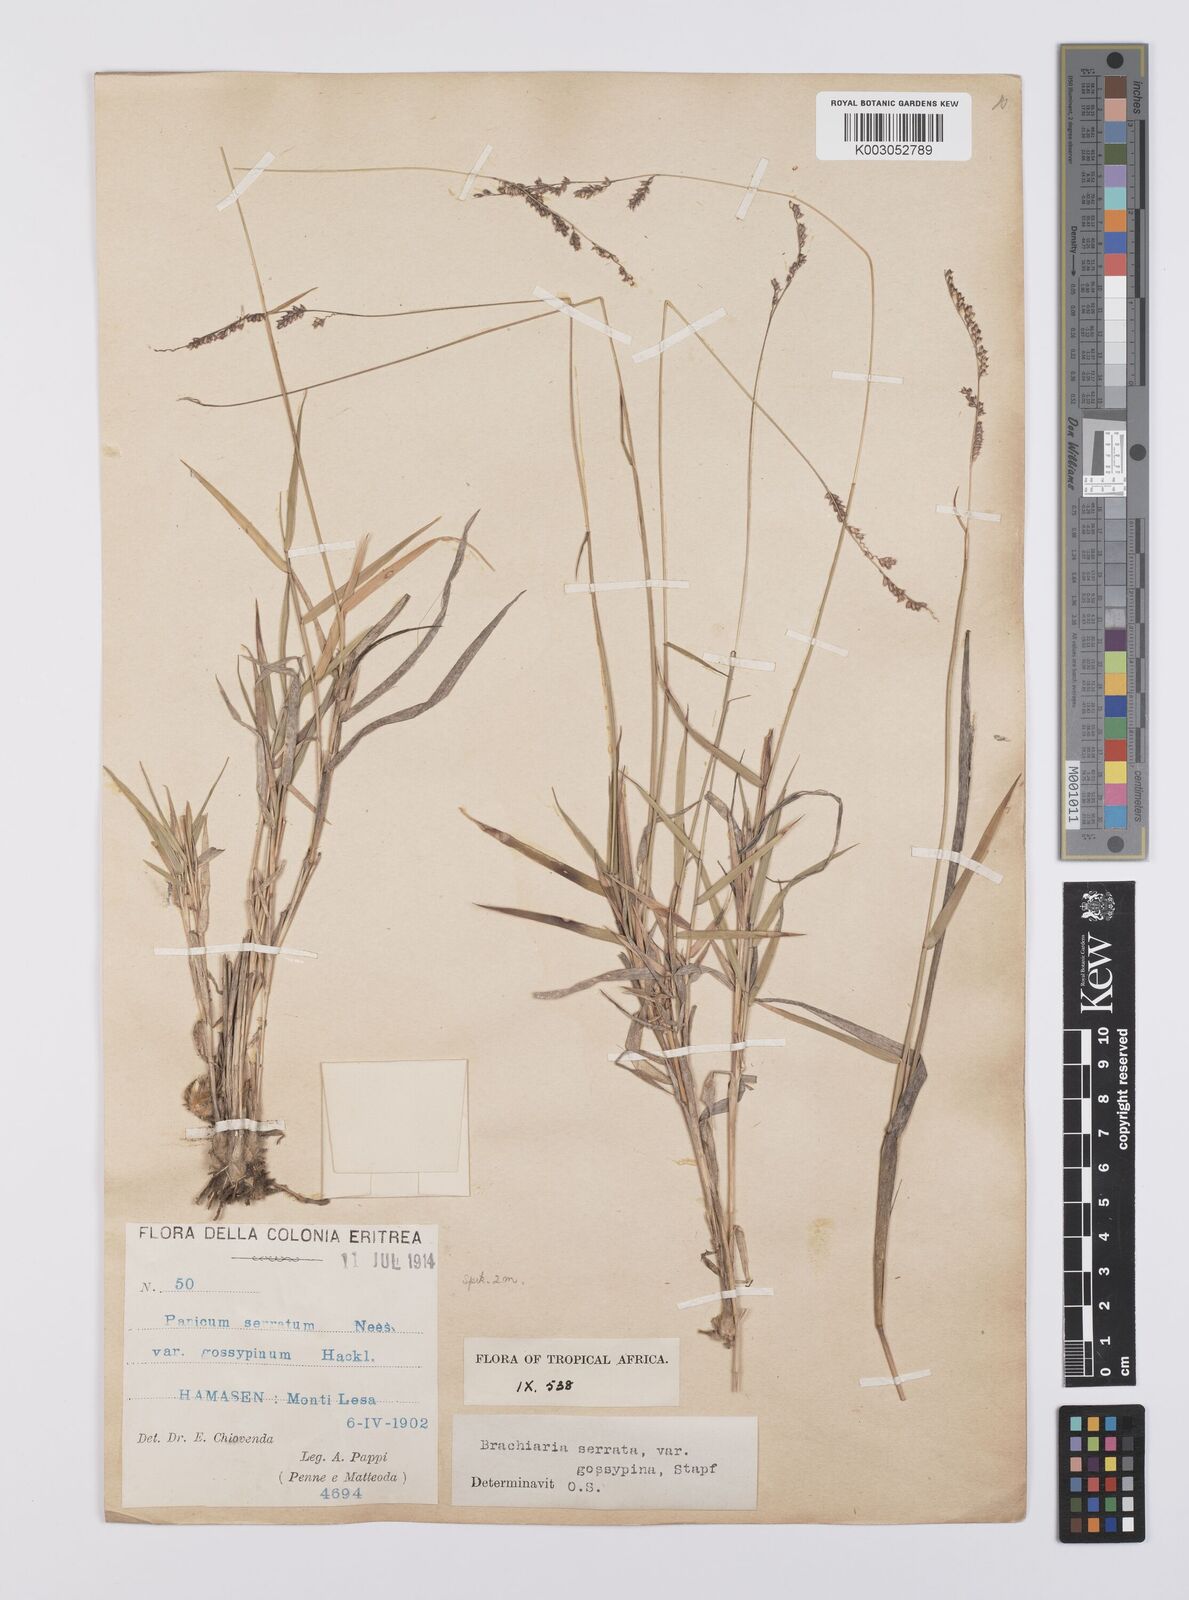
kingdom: Plantae
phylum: Tracheophyta
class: Liliopsida
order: Poales
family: Poaceae
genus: Urochloa
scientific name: Urochloa serrata
